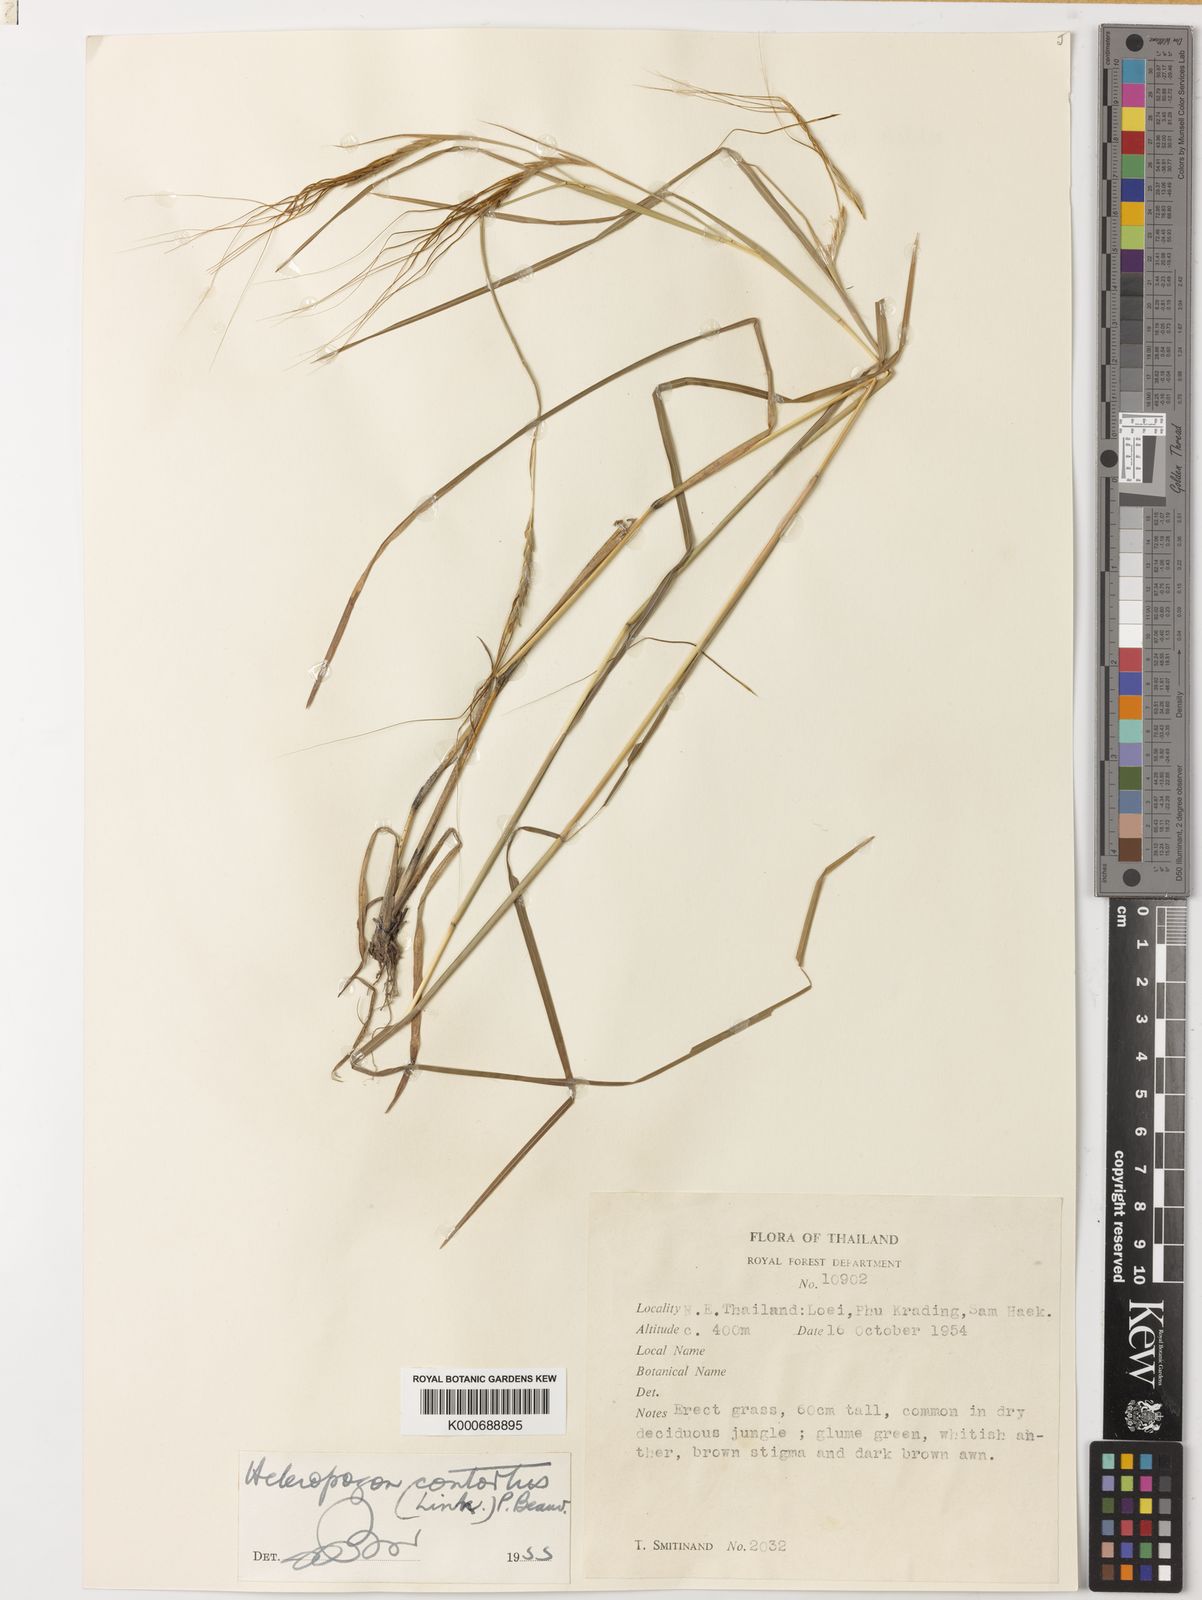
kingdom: Plantae
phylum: Tracheophyta
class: Liliopsida
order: Poales
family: Poaceae
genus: Heteropogon
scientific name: Heteropogon contortus
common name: Tanglehead
